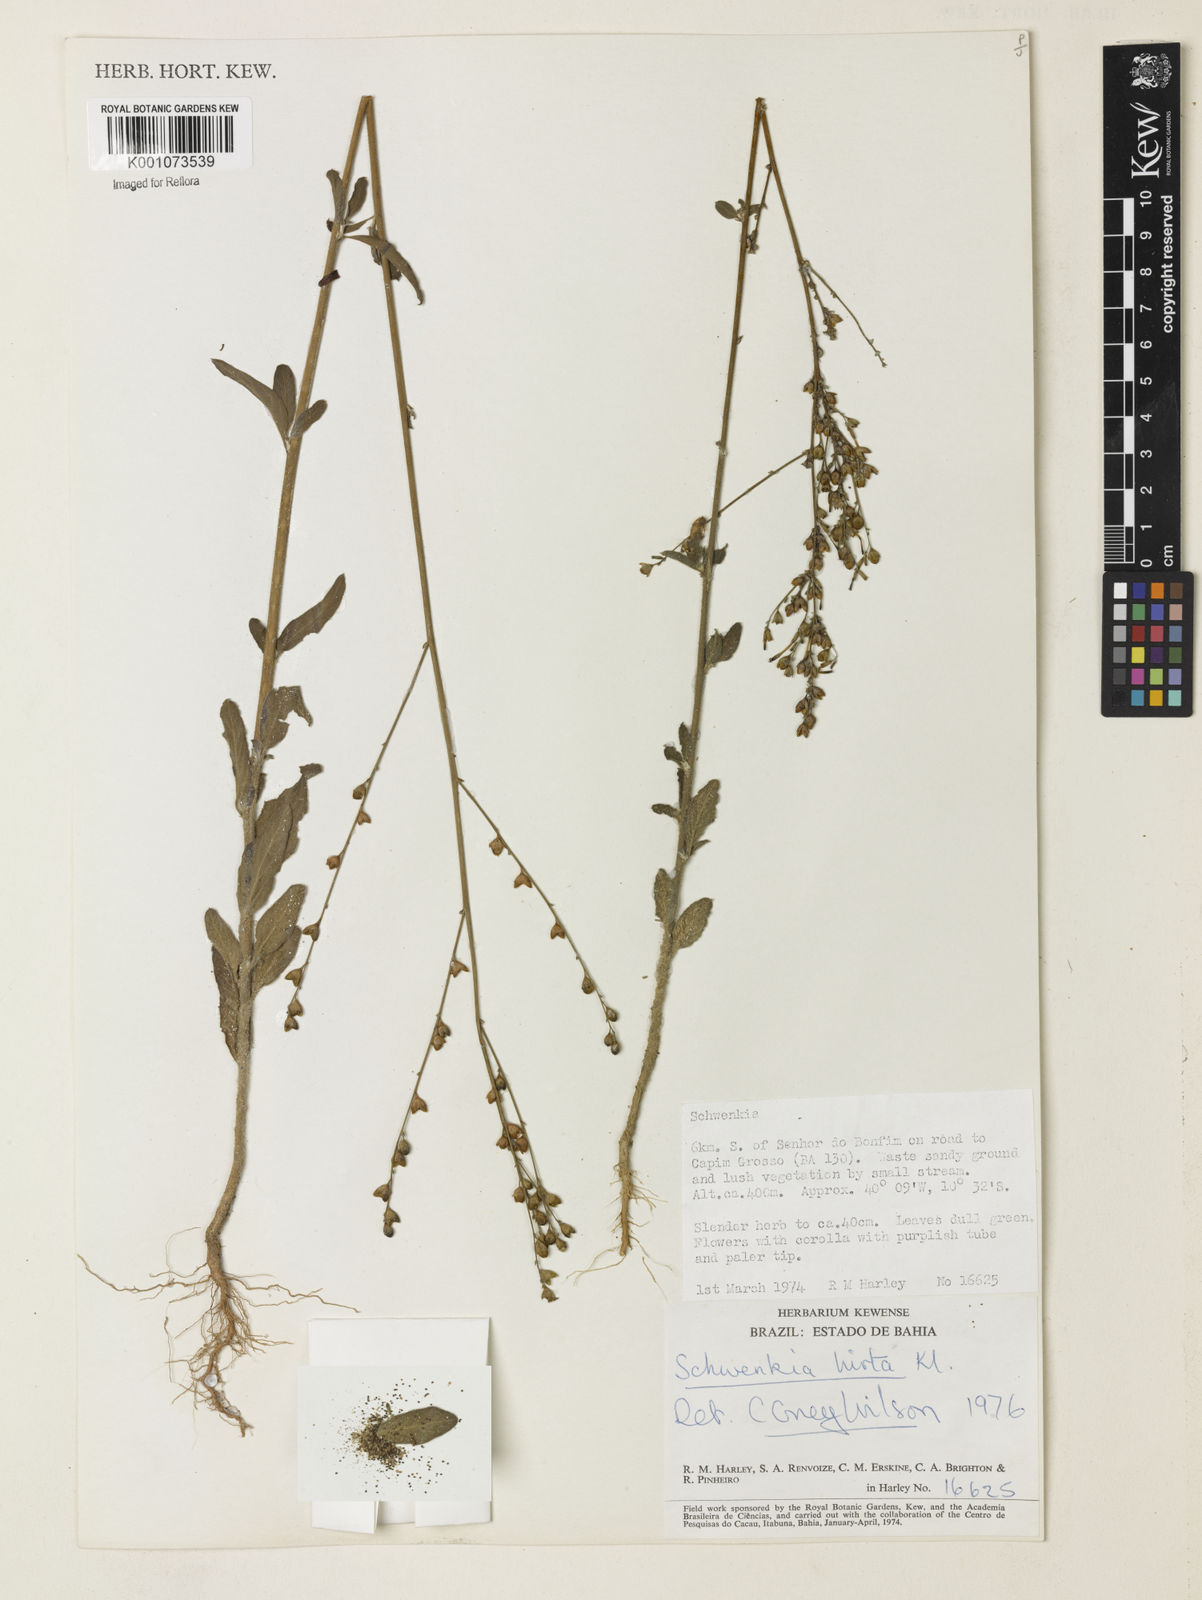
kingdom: Plantae
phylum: Tracheophyta
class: Magnoliopsida
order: Solanales
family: Solanaceae
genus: Schwenckia
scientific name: Schwenckia americana
